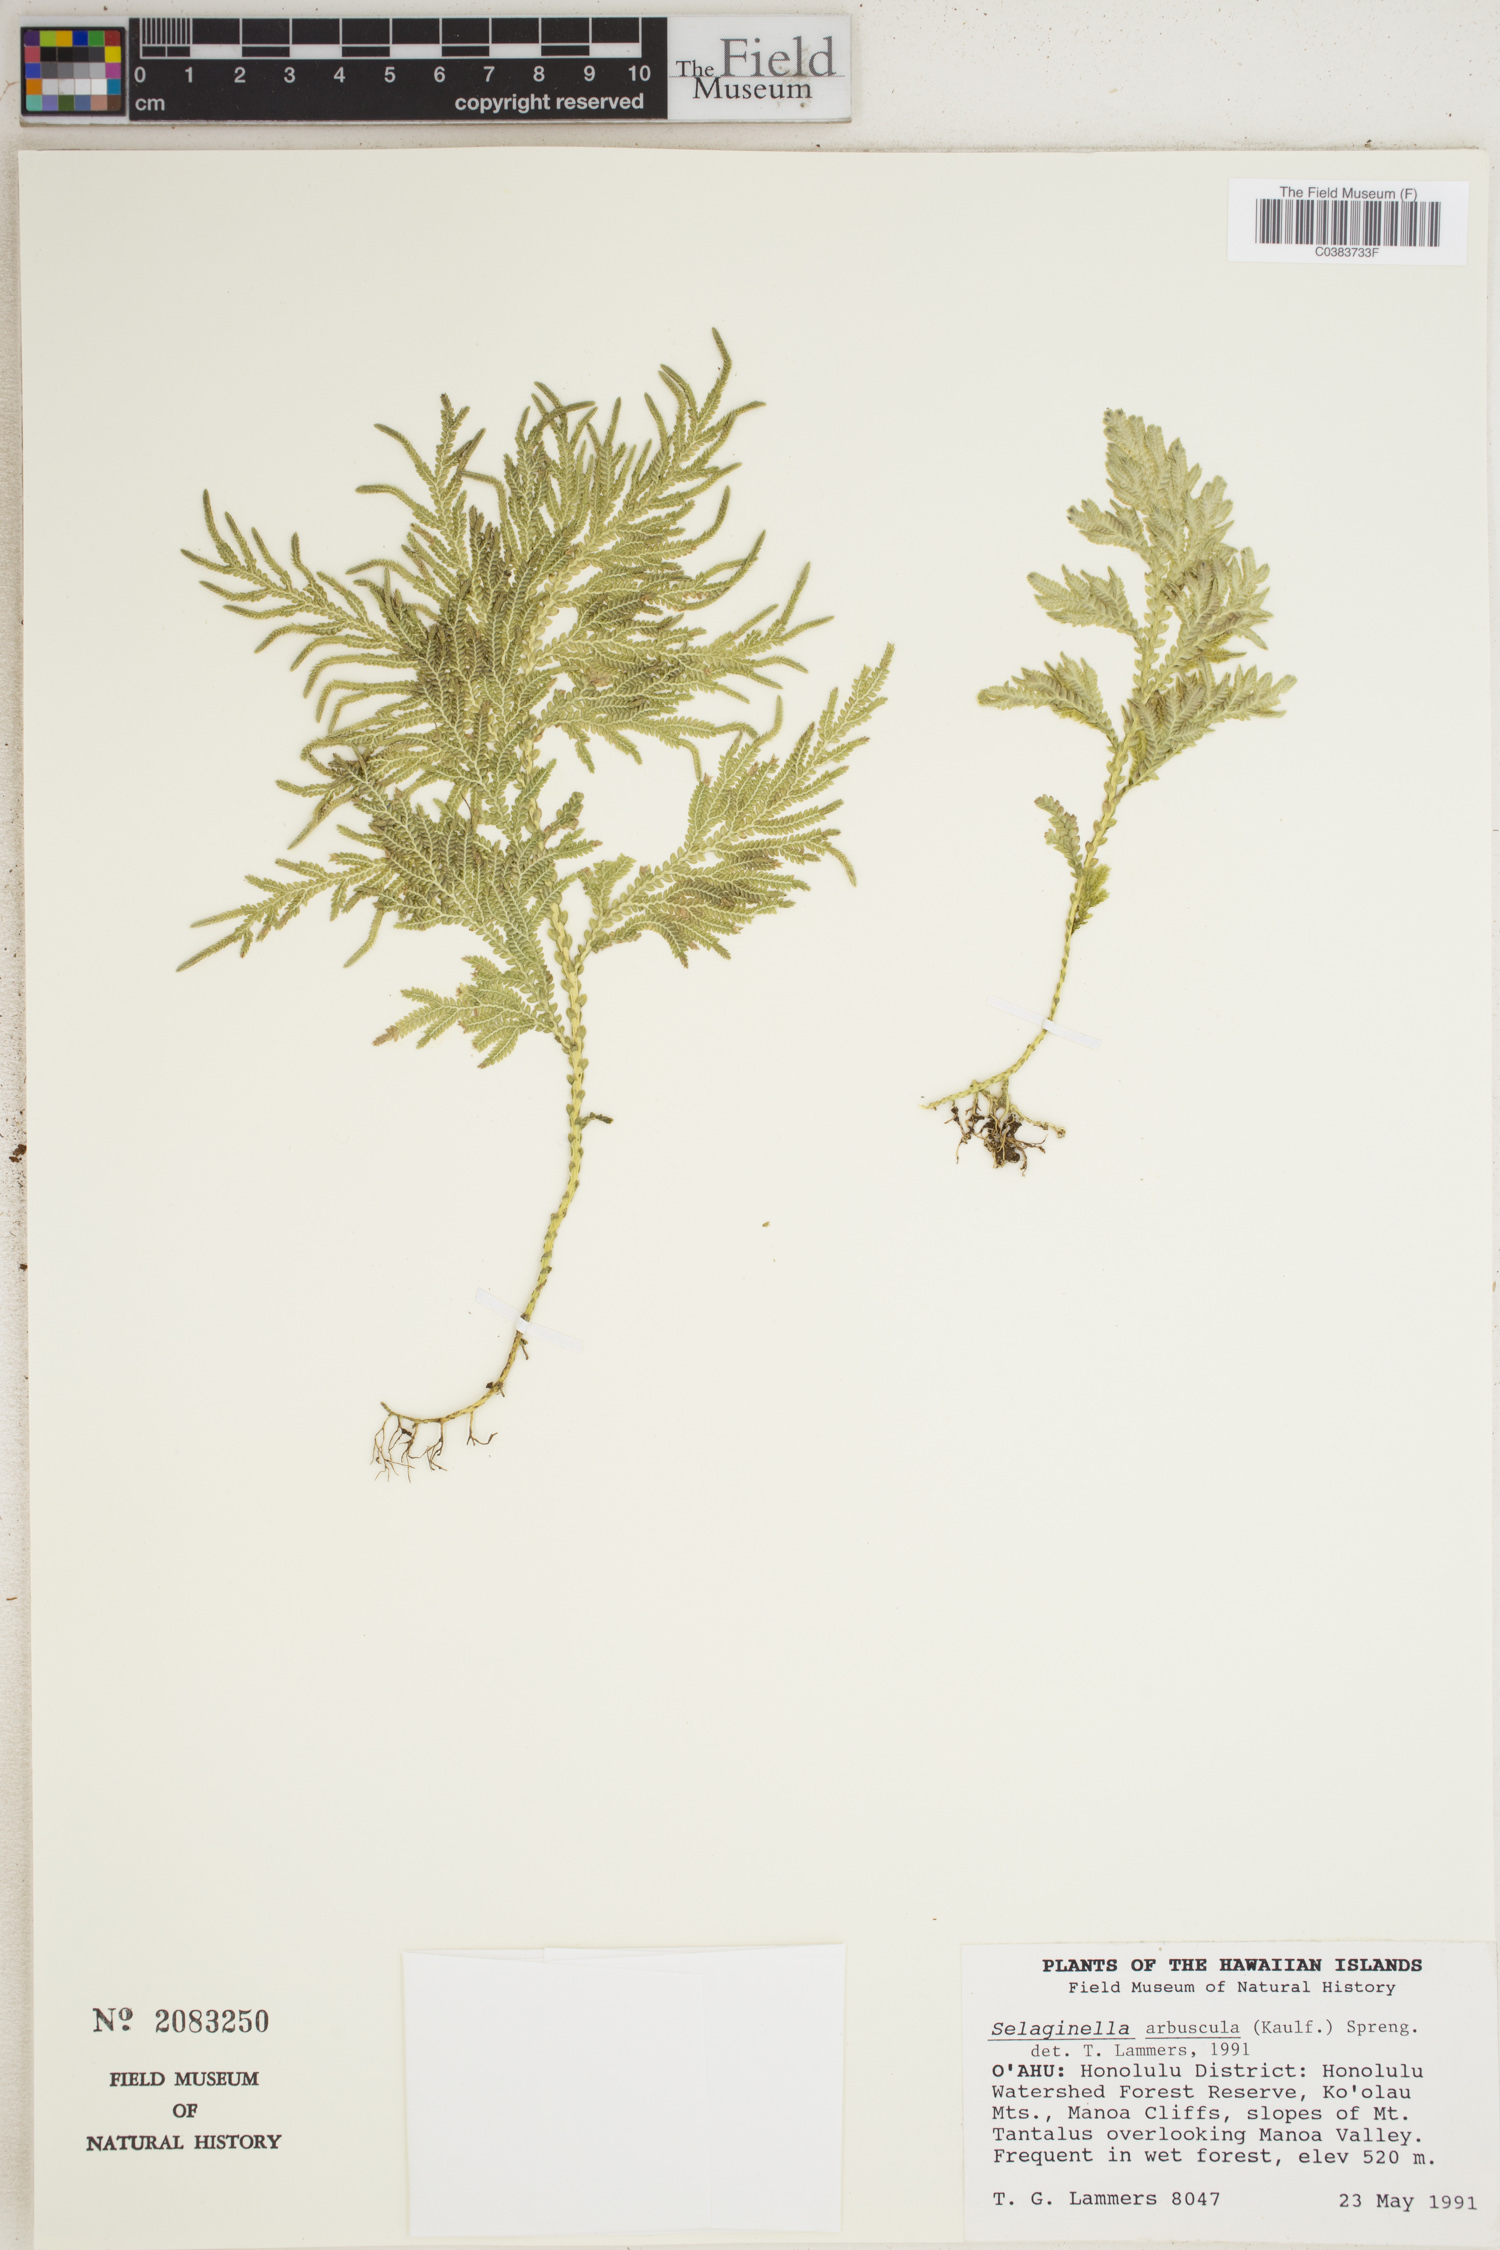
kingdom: Plantae
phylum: Tracheophyta
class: Lycopodiopsida
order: Selaginellales
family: Selaginellaceae
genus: Selaginella
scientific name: Selaginella arbuscula
